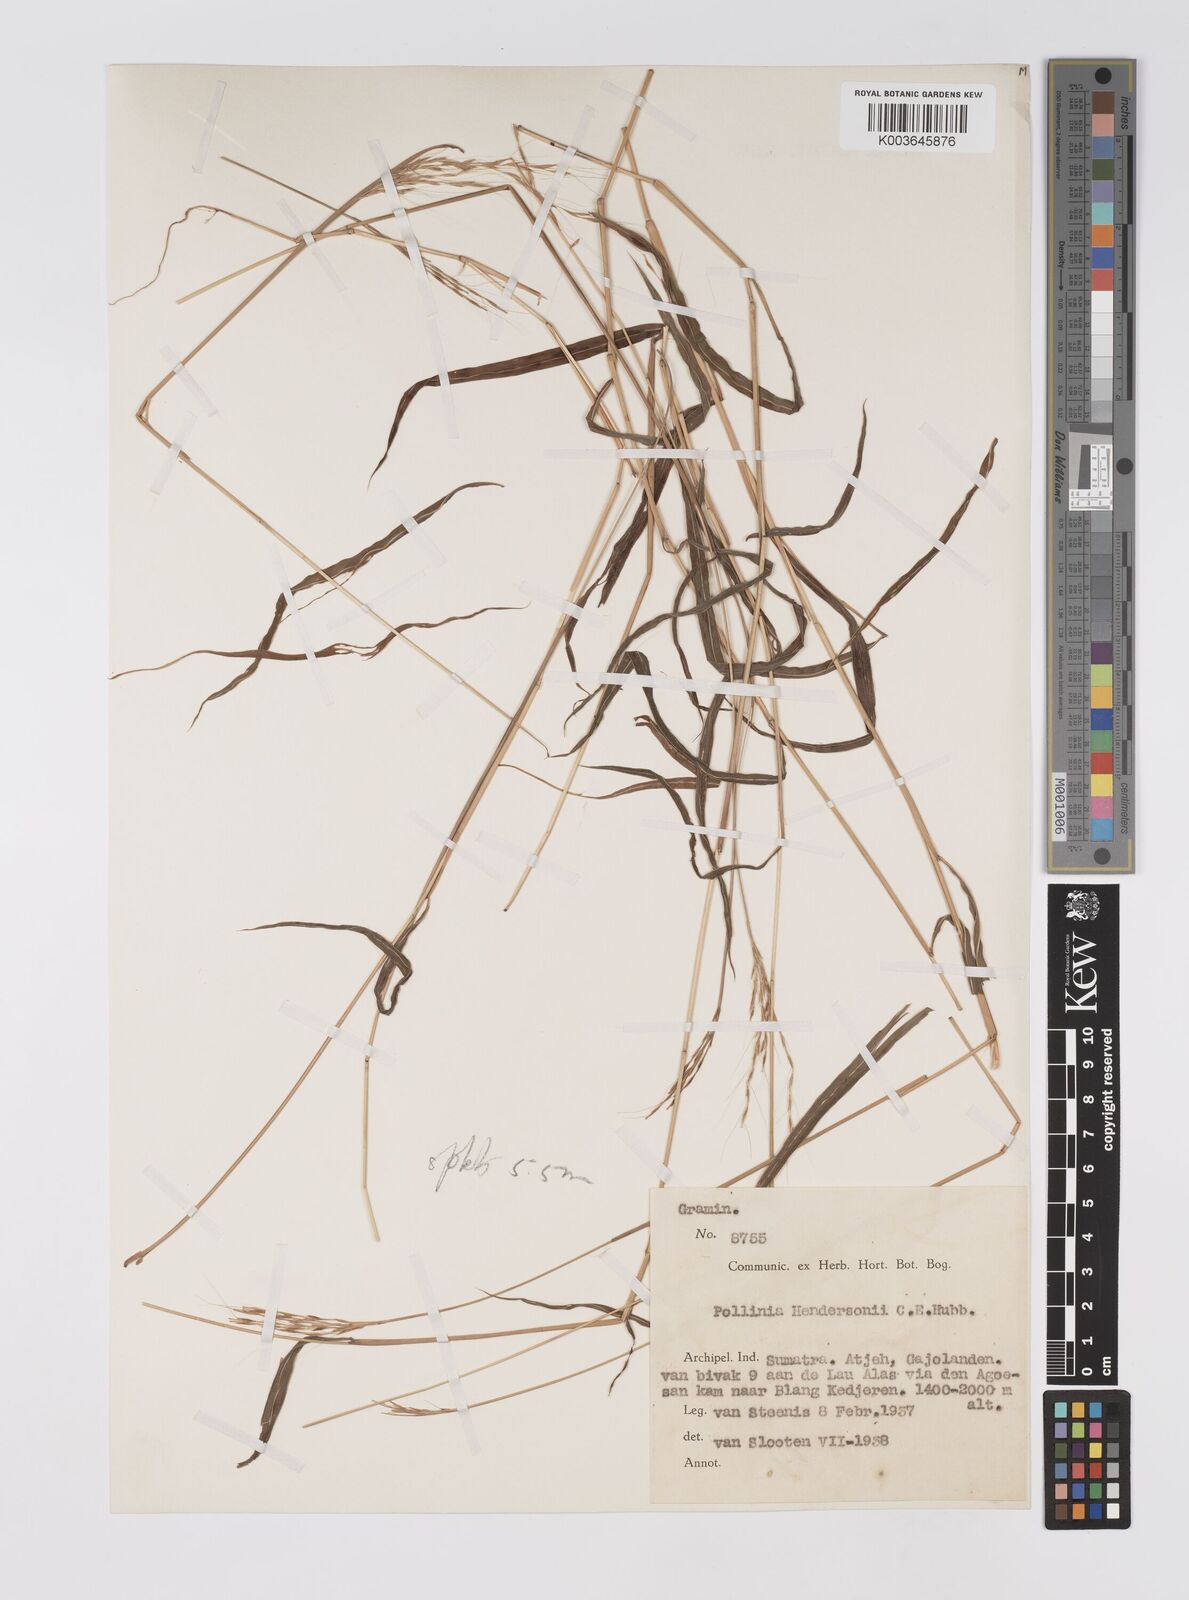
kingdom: Plantae
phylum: Tracheophyta
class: Liliopsida
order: Poales
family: Poaceae
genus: Microstegium
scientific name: Microstegium geniculatum
